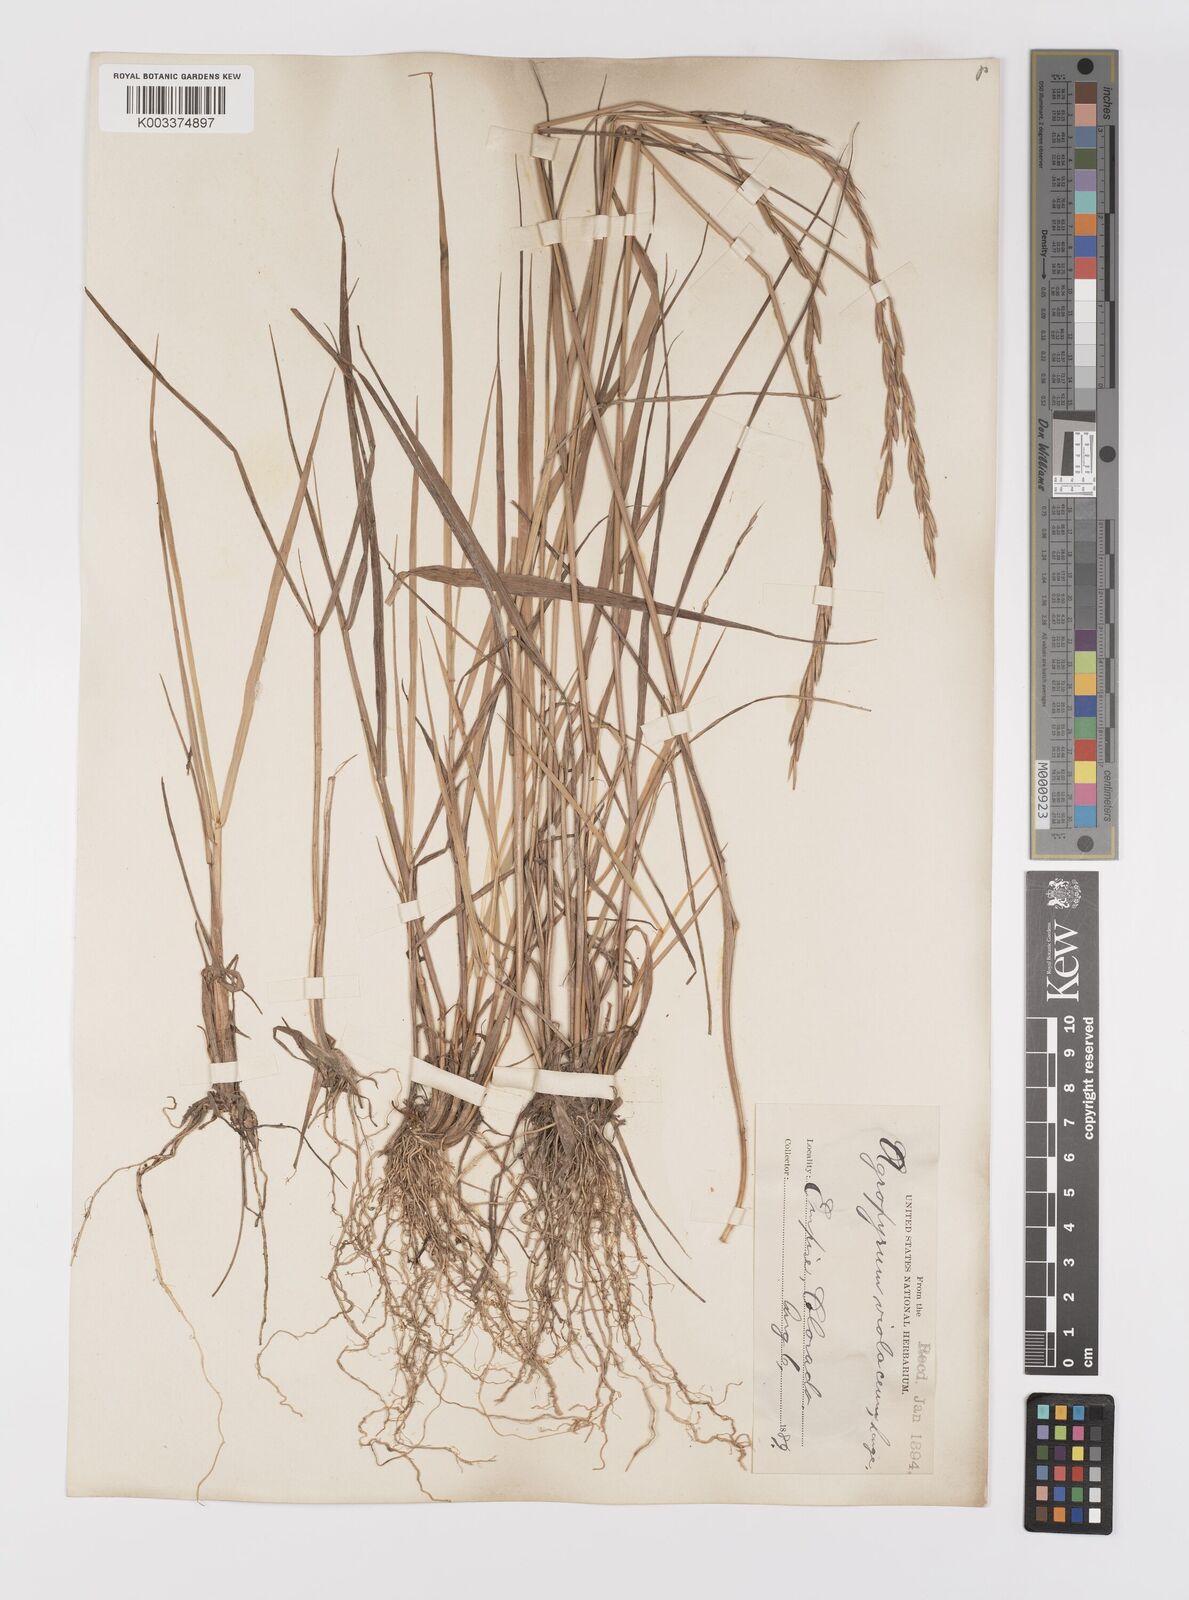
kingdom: Plantae
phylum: Tracheophyta
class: Liliopsida
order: Poales
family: Poaceae
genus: Elymus
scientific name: Elymus violaceus
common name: Arctic wheatgrass
